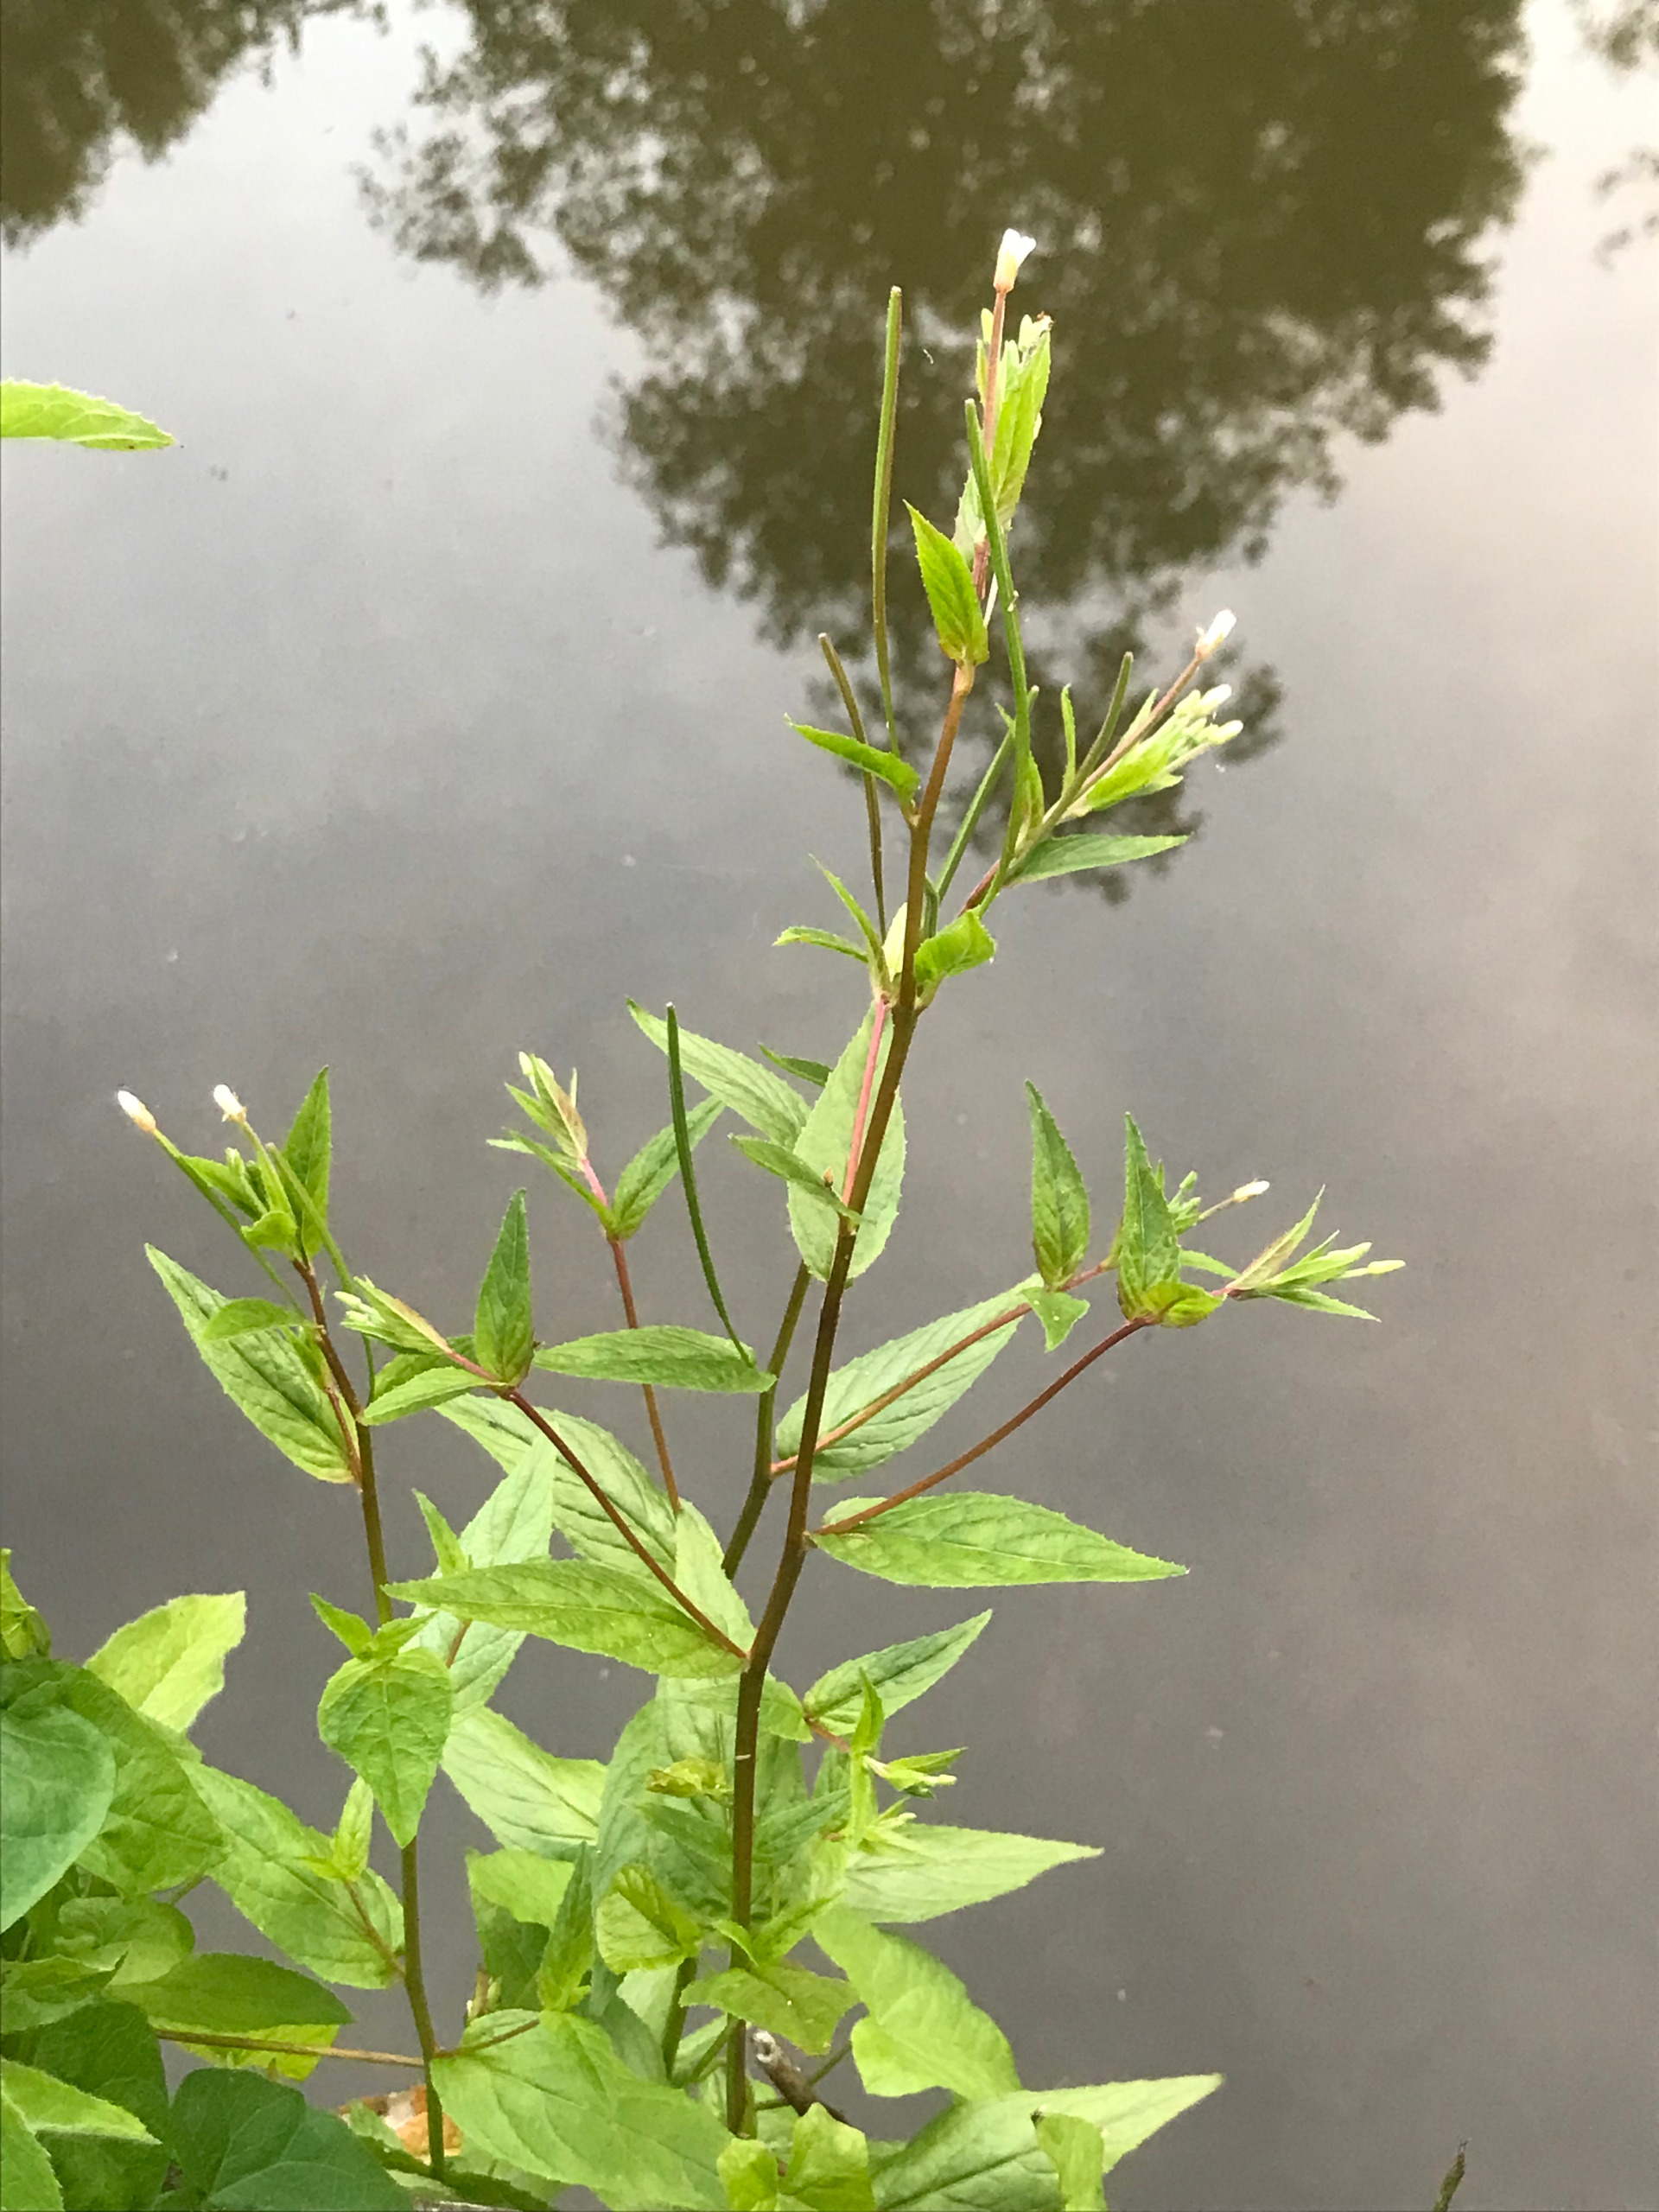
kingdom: Plantae
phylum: Tracheophyta
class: Magnoliopsida
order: Myrtales
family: Onagraceae
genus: Epilobium
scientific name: Epilobium ciliatum
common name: Hvid dueurt
